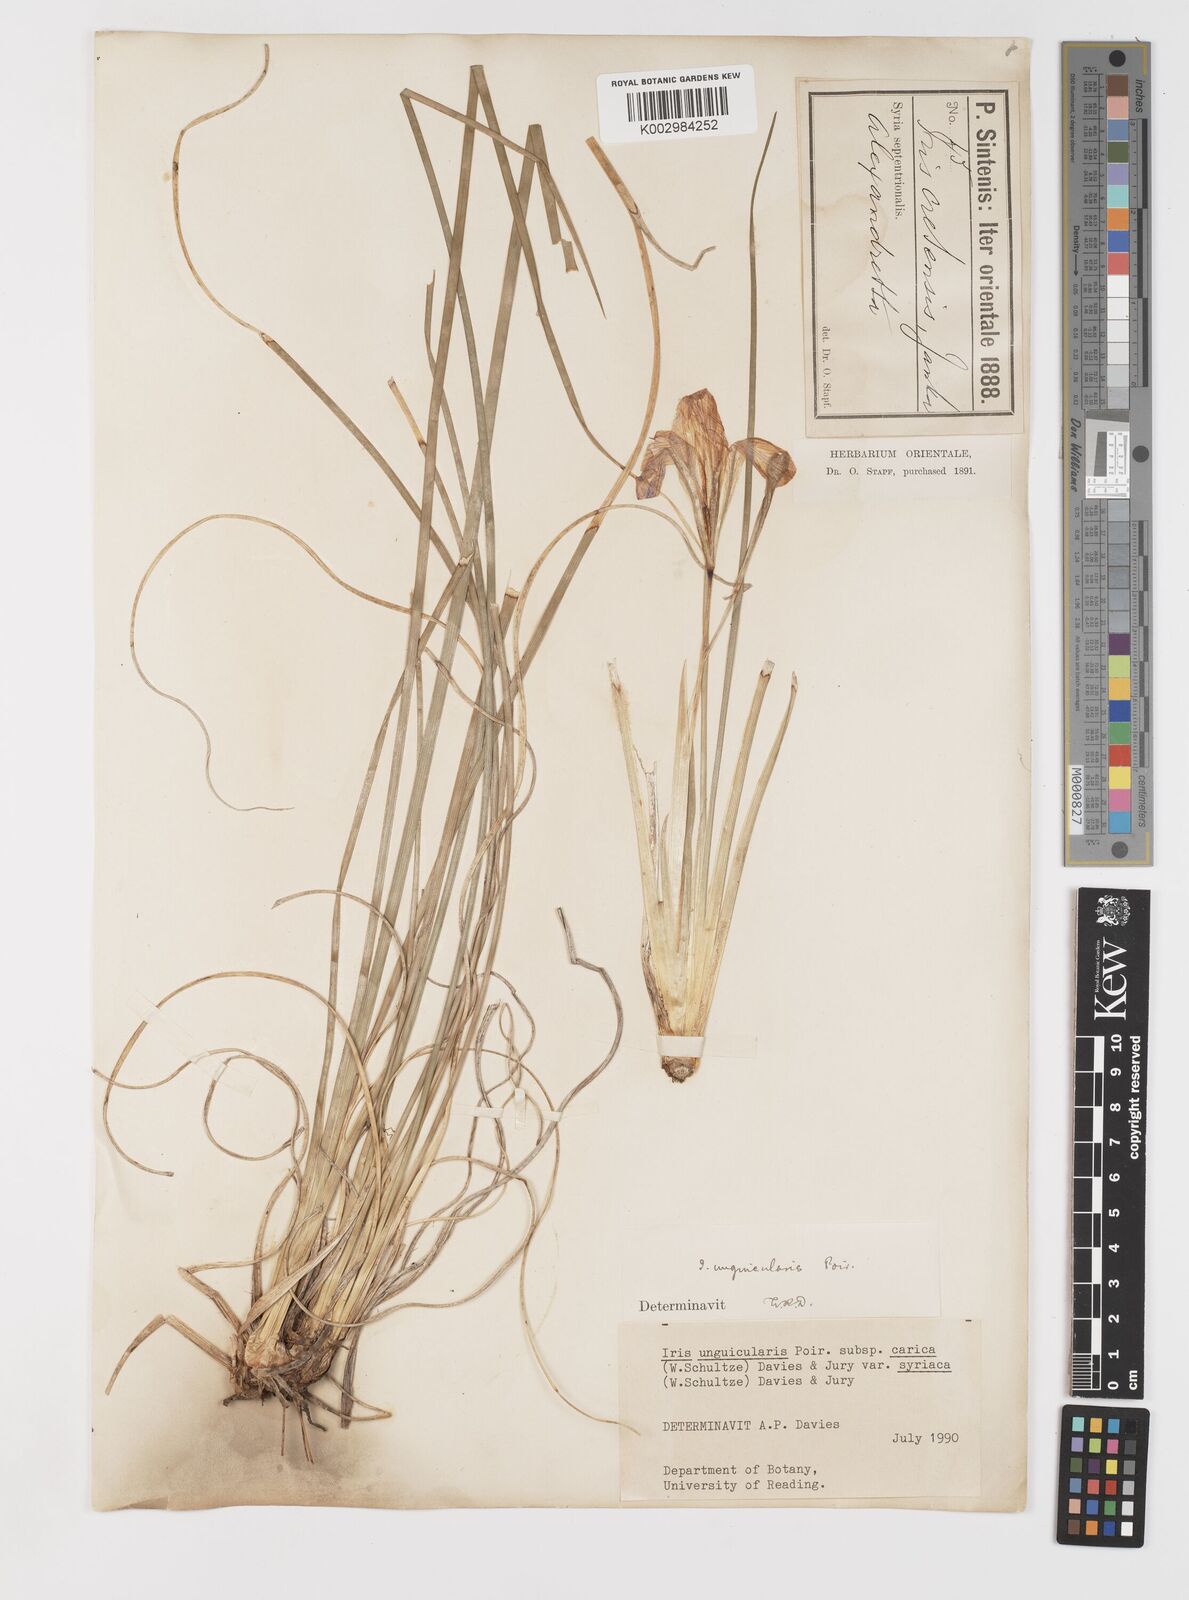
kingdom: Plantae
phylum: Tracheophyta
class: Liliopsida
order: Asparagales
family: Iridaceae
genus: Iris
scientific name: Iris unguicularis
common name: Algerian iris
